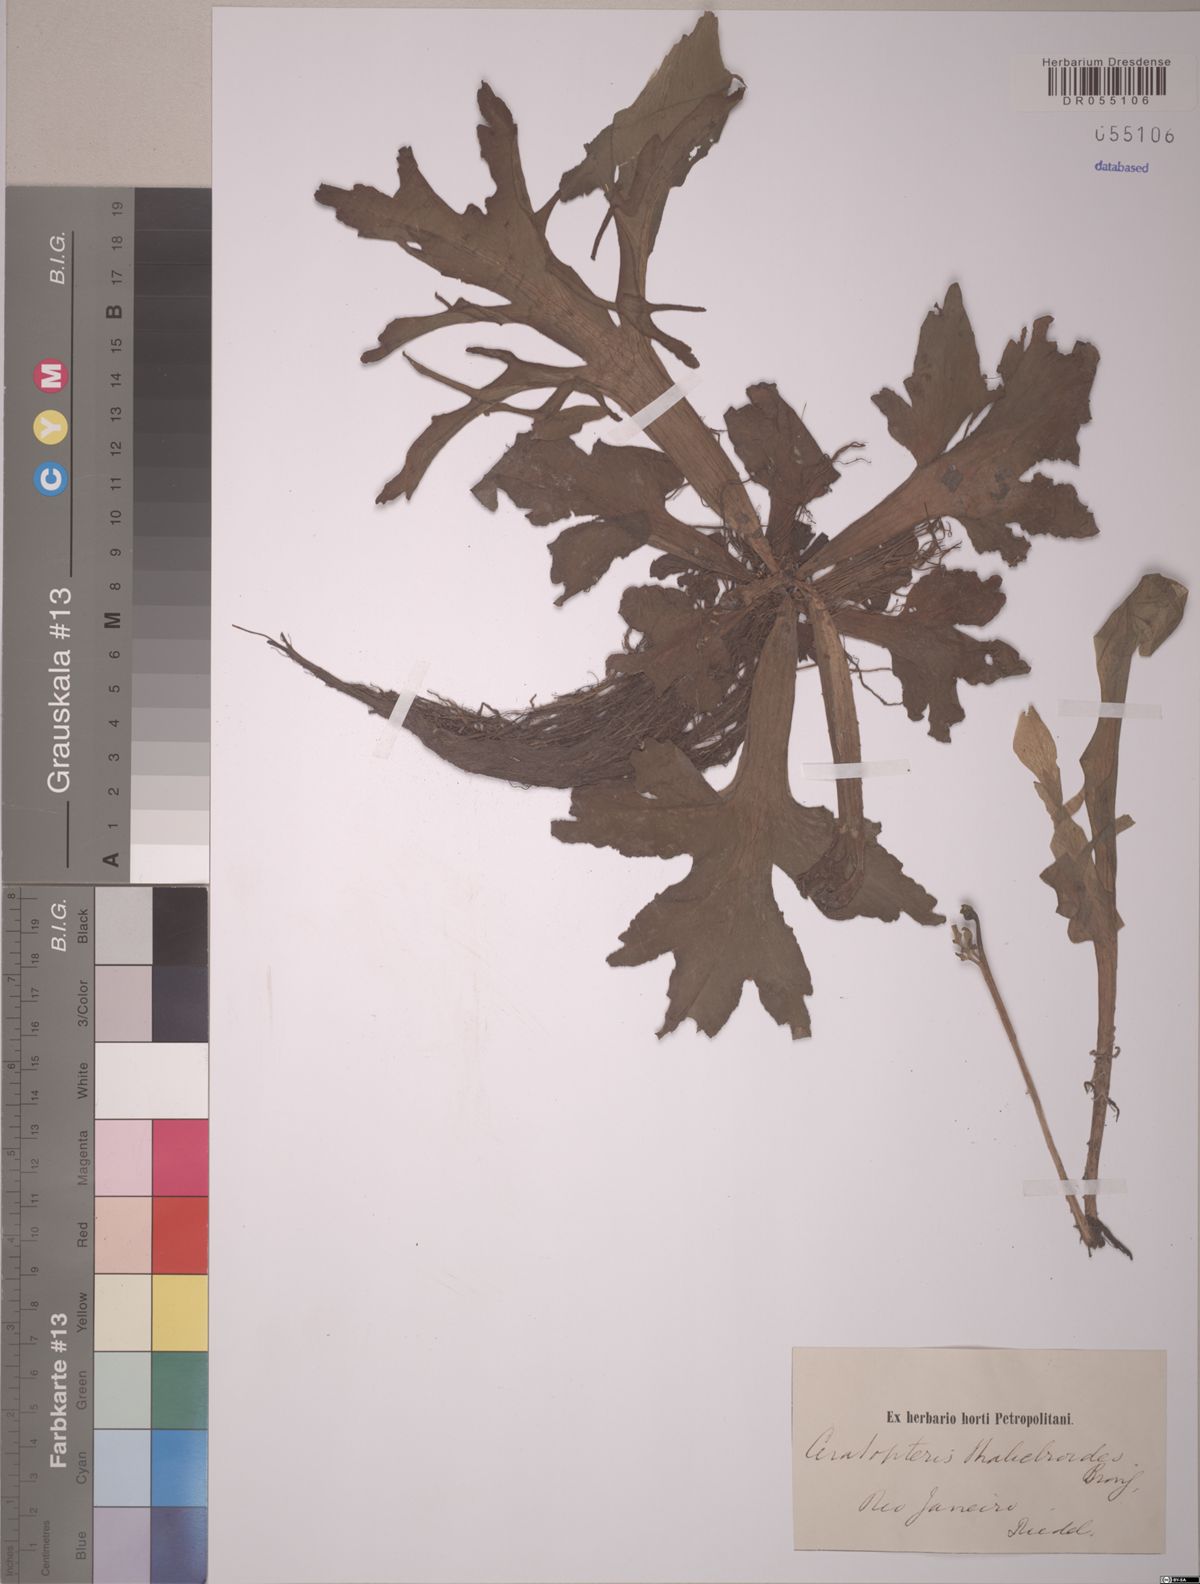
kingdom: Plantae
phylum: Tracheophyta
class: Polypodiopsida
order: Polypodiales
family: Pteridaceae
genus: Ceratopteris
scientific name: Ceratopteris thalictroides
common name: Water fern
